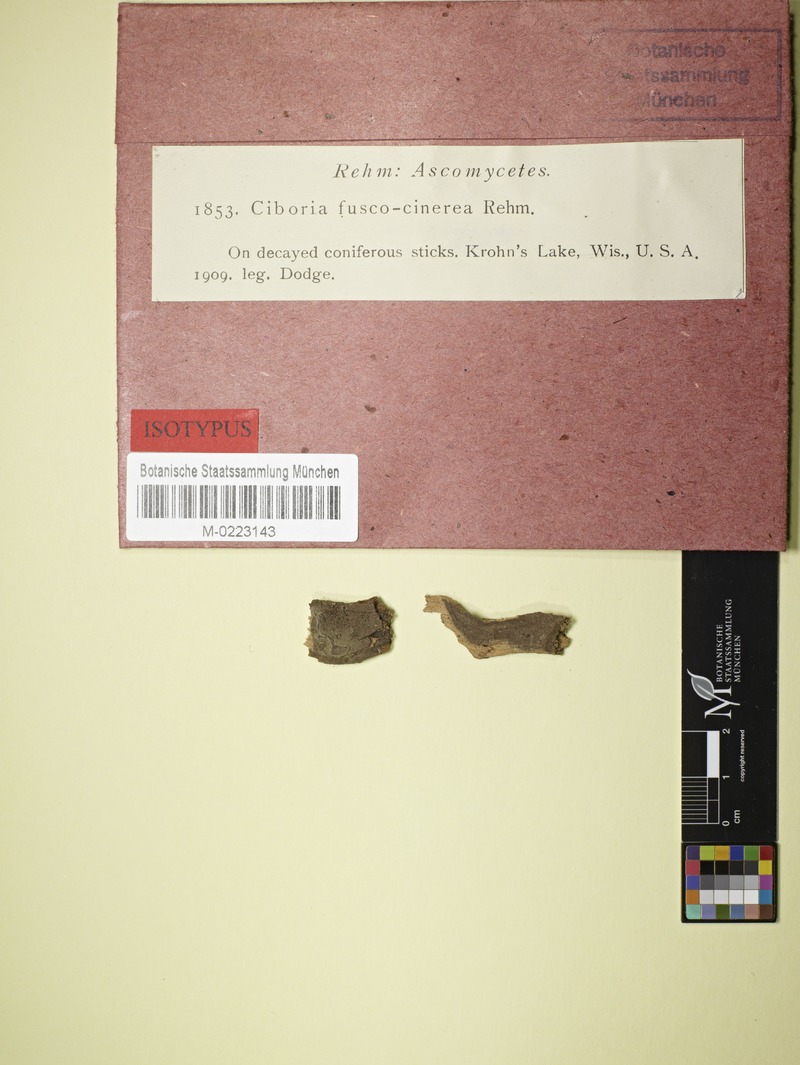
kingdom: Fungi
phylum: Ascomycota
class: Leotiomycetes
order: Helotiales
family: Sclerotiniaceae
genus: Ciboria
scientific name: Ciboria fuscocinerea
